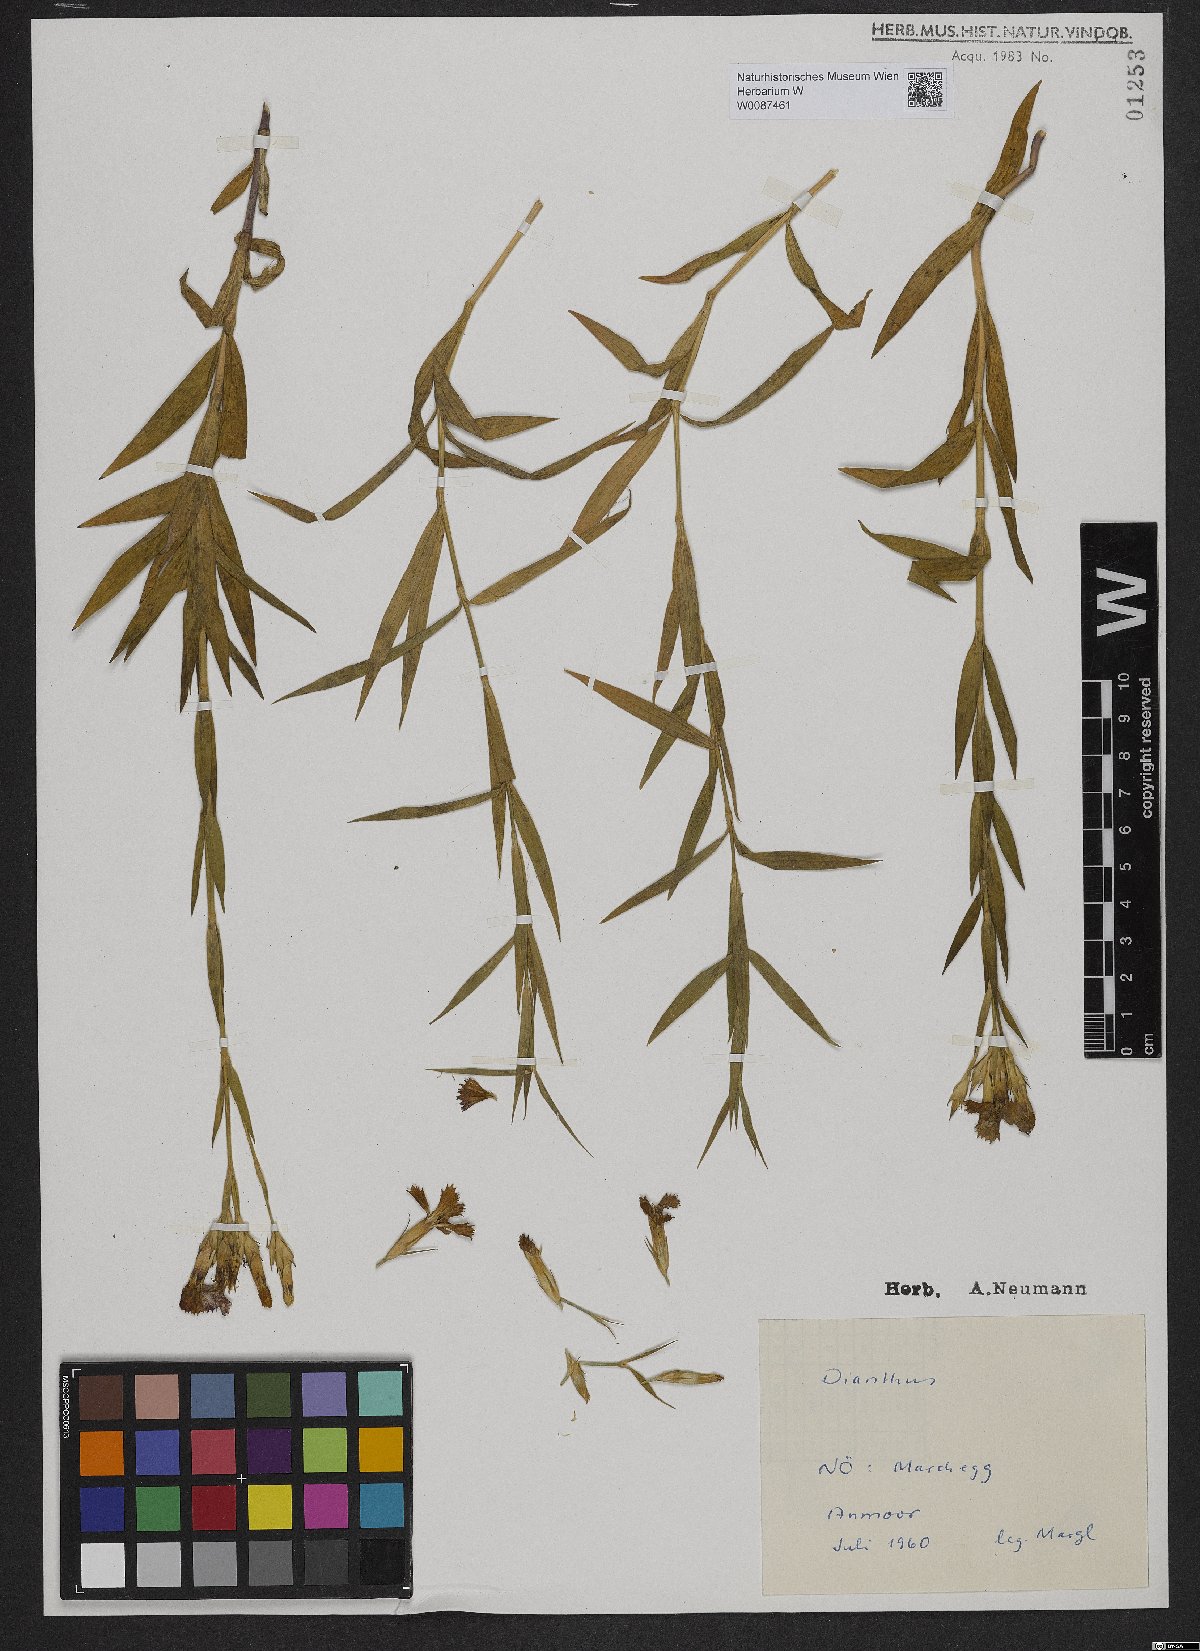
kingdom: Plantae
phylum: Tracheophyta
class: Magnoliopsida
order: Caryophyllales
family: Caryophyllaceae
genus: Dianthus
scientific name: Dianthus collinus
